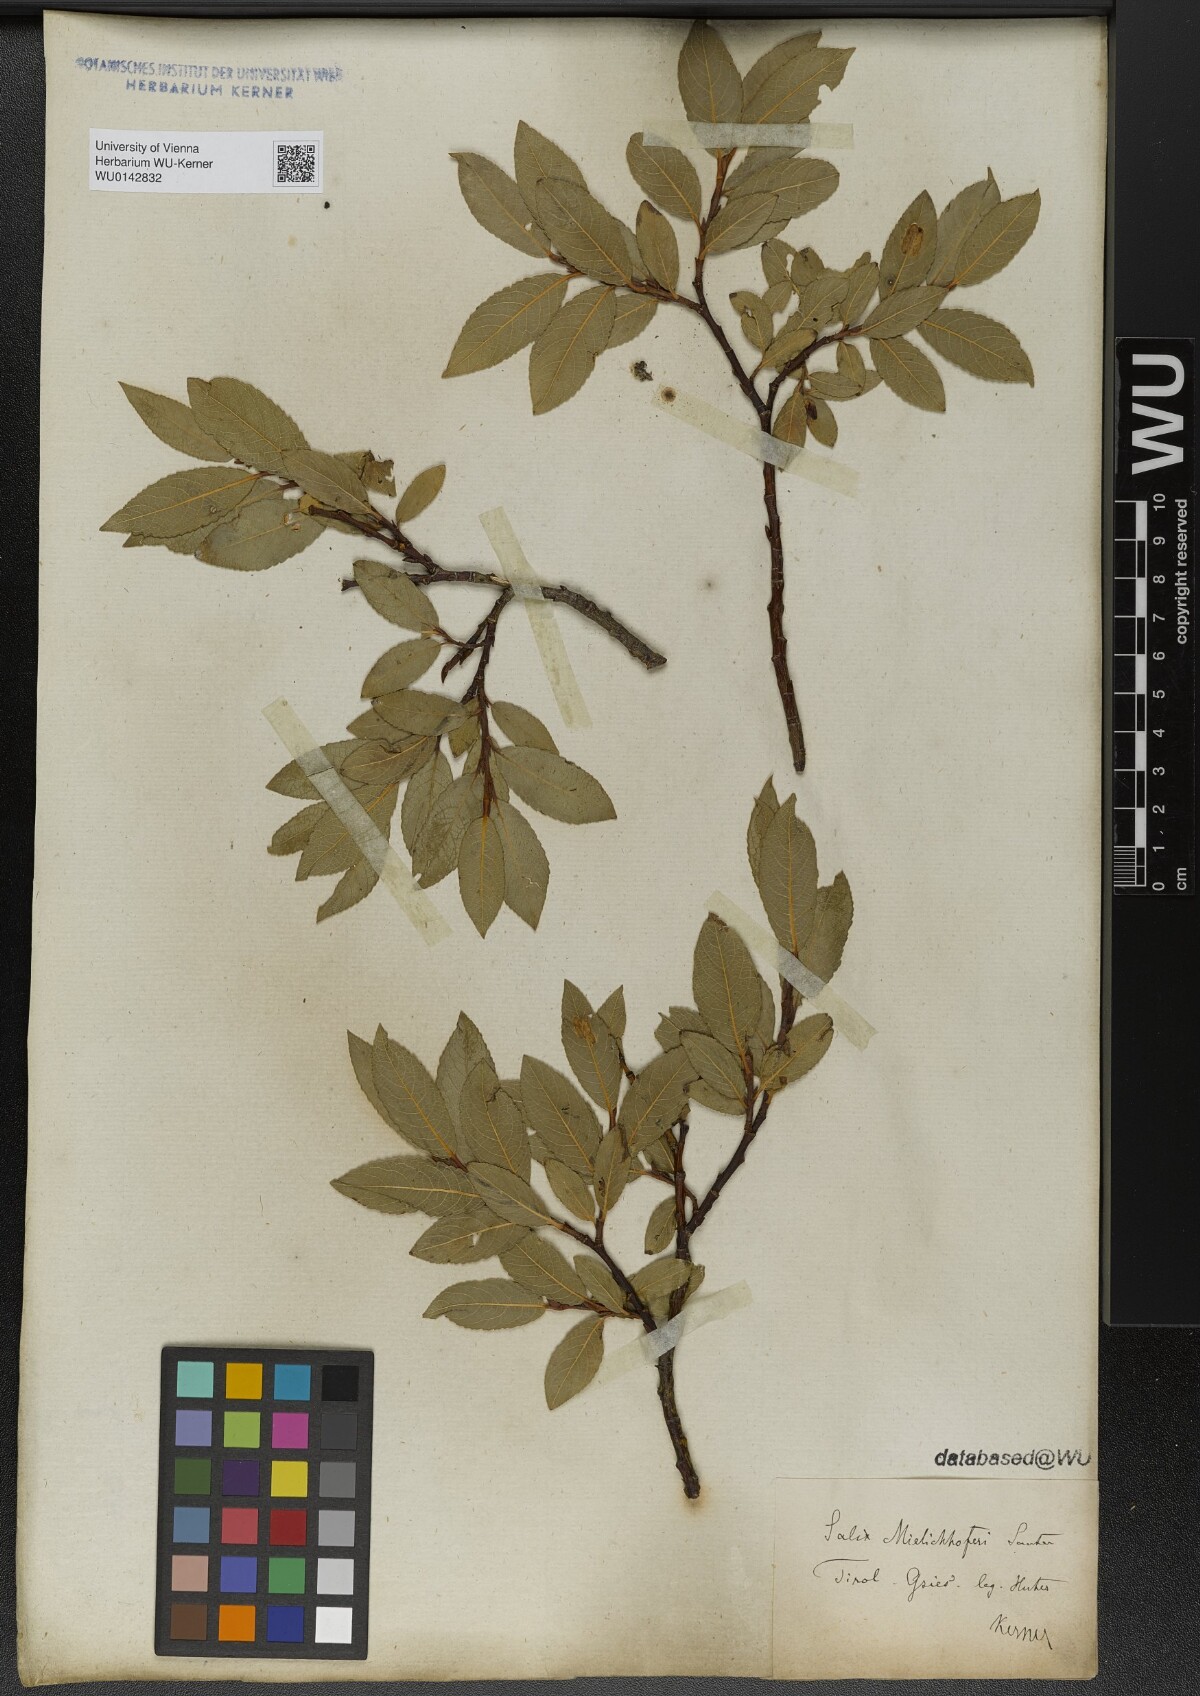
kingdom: Plantae
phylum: Tracheophyta
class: Magnoliopsida
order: Malpighiales
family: Salicaceae
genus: Salix
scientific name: Salix mielichhoferi
